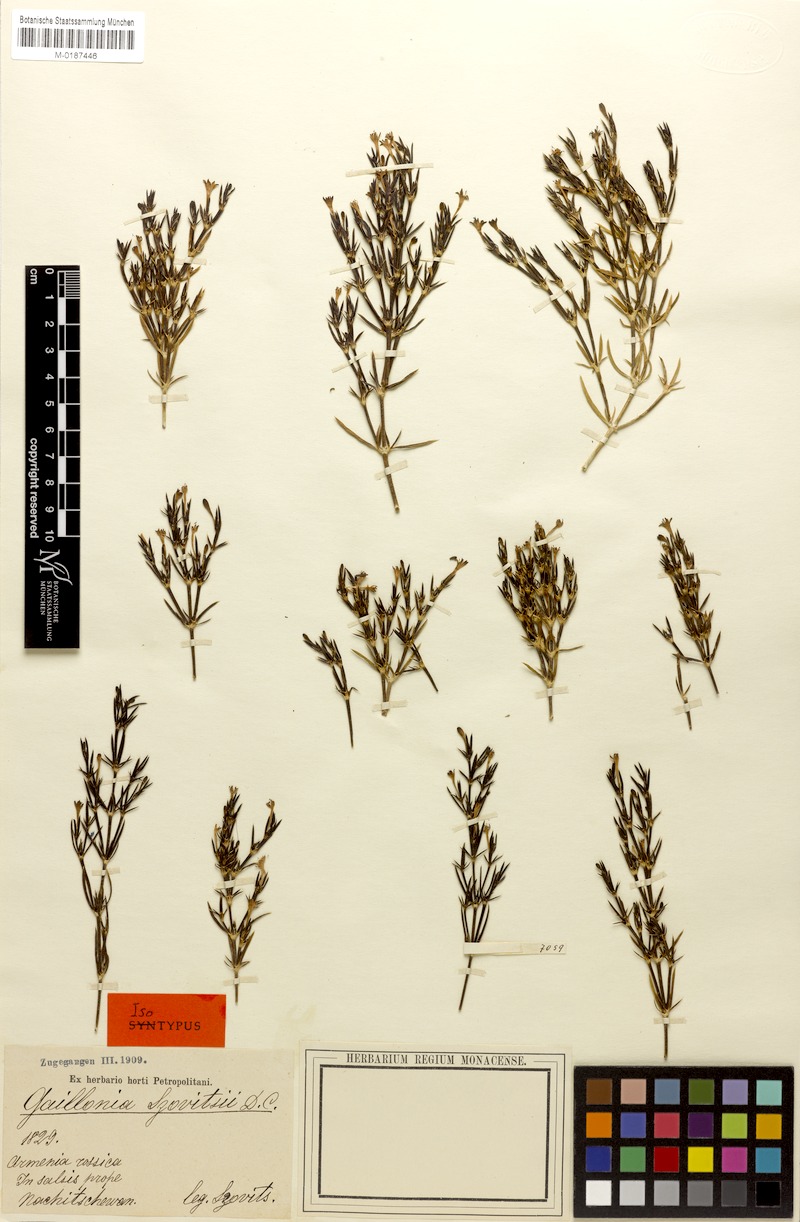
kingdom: Plantae
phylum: Tracheophyta
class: Magnoliopsida
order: Gentianales
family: Rubiaceae
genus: Plocama
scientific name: Plocama szowitzii
